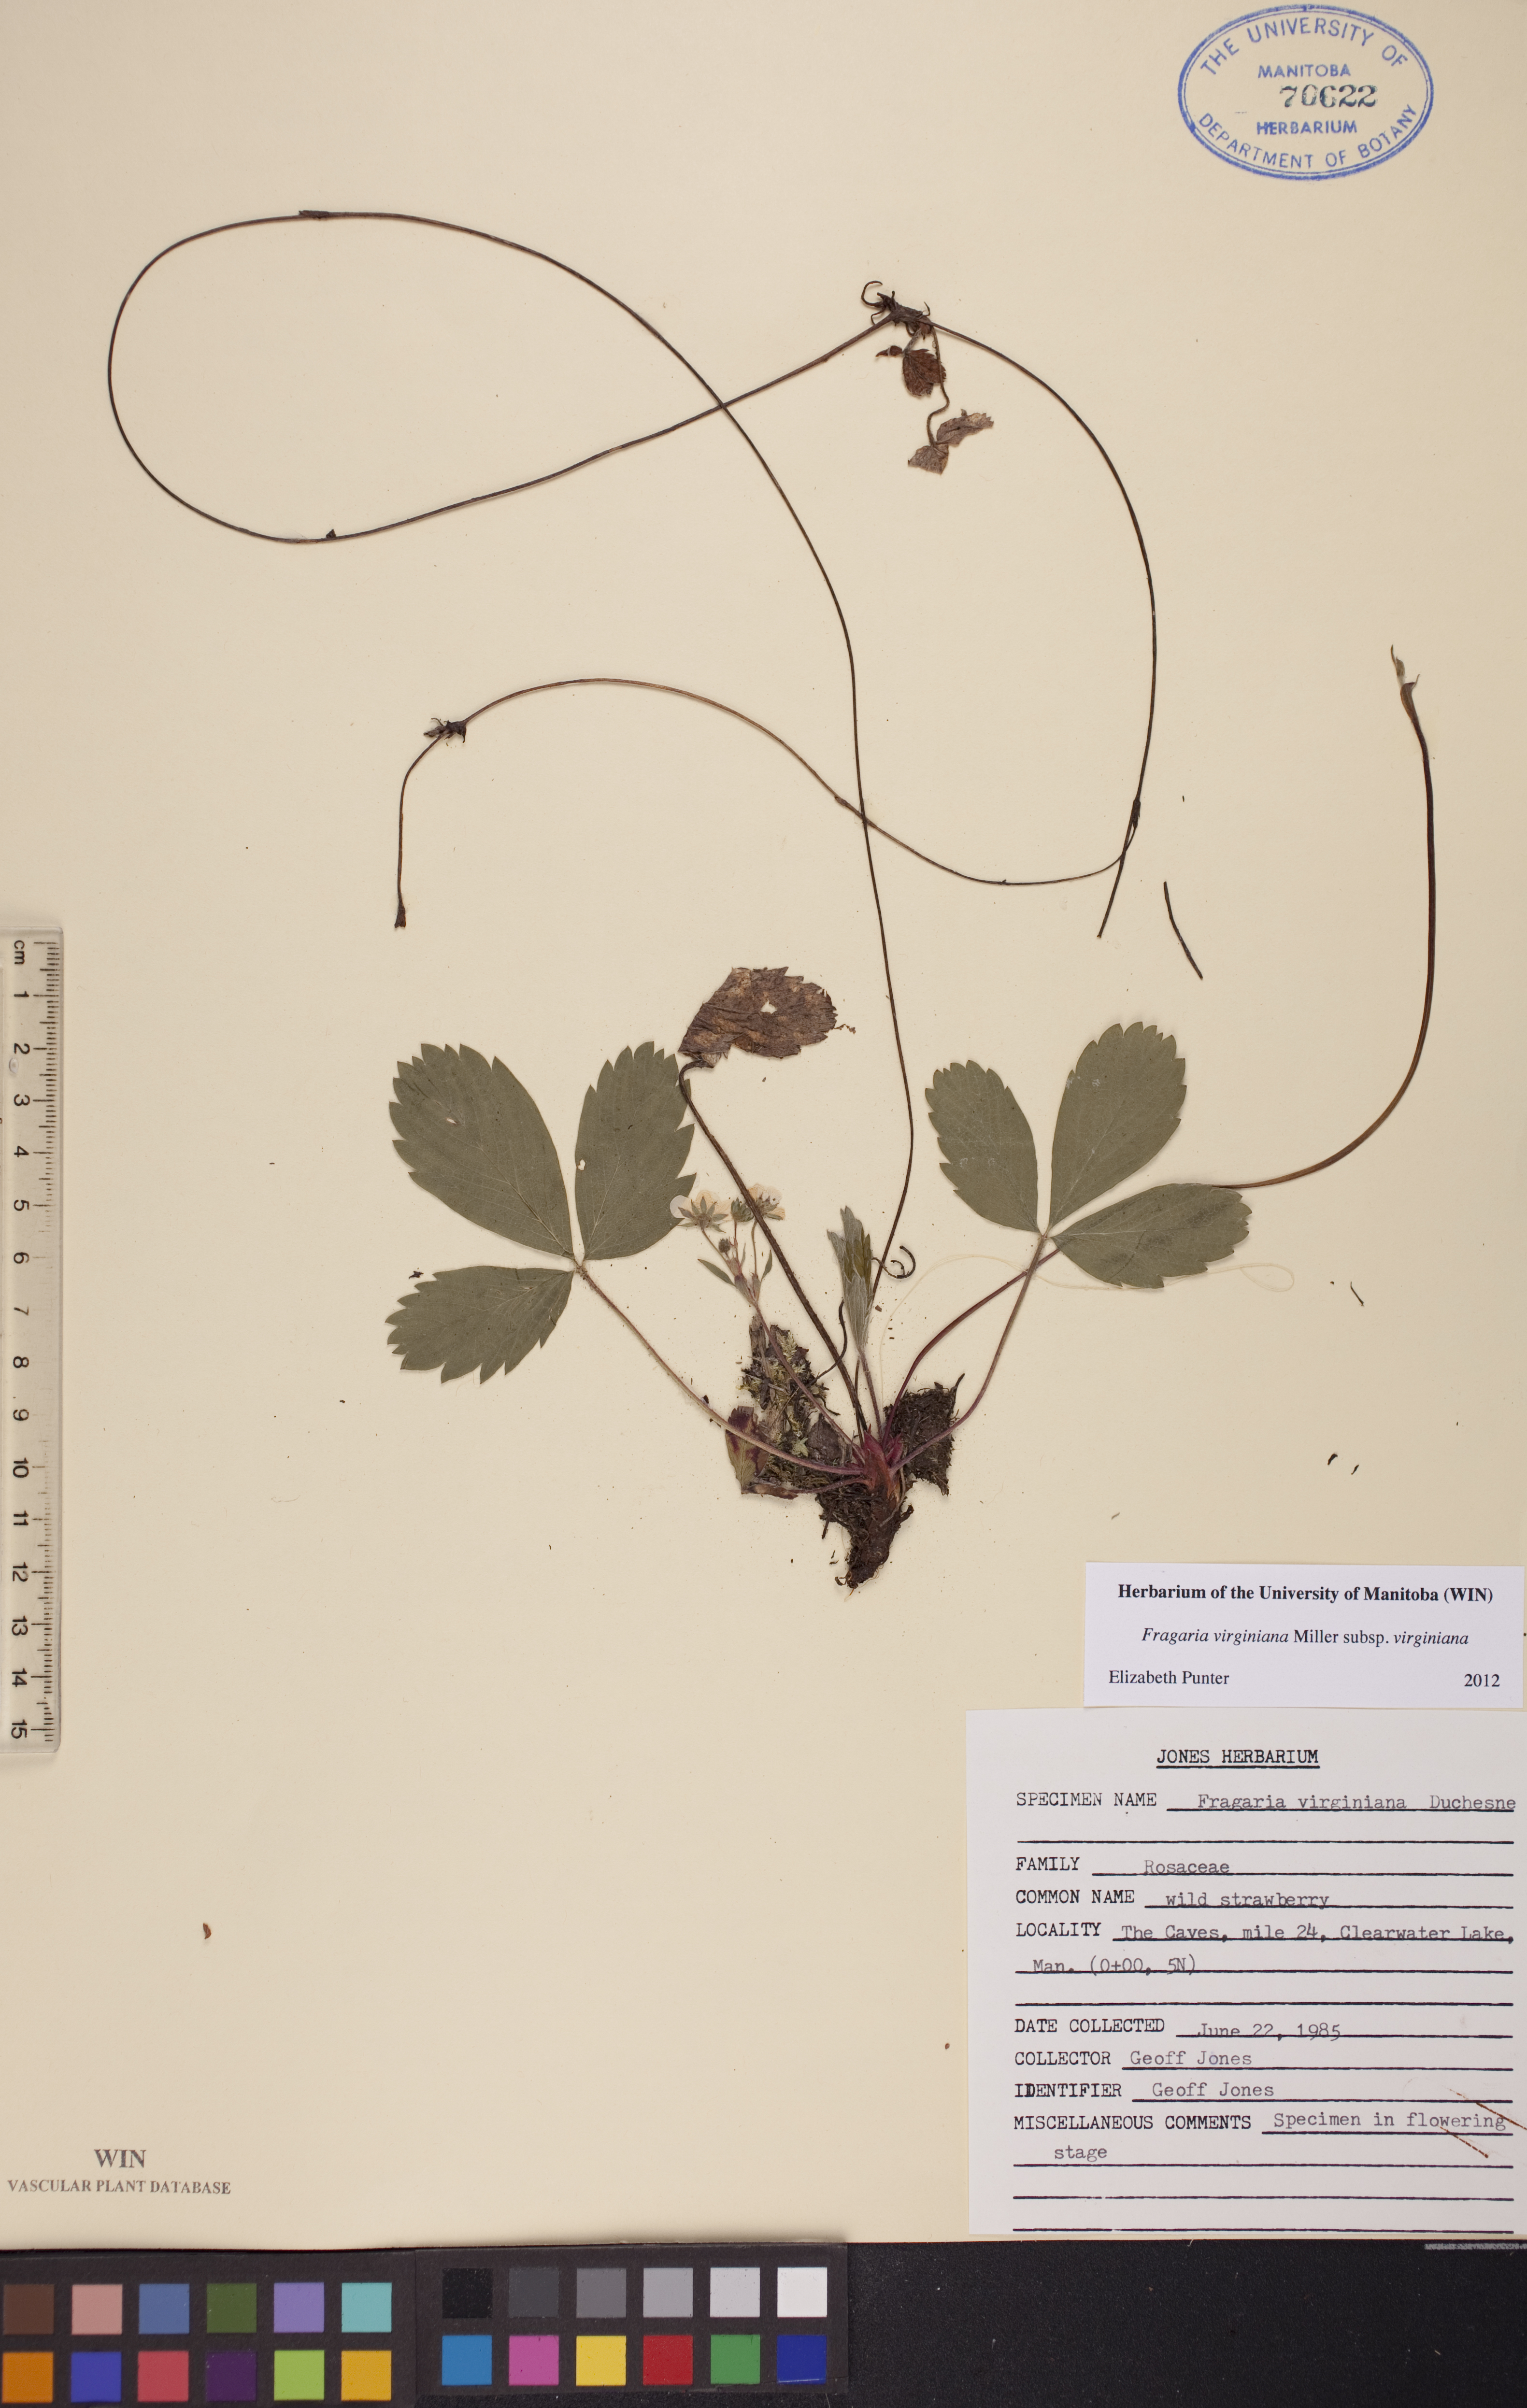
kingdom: Plantae
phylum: Tracheophyta
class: Magnoliopsida
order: Rosales
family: Rosaceae
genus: Fragaria
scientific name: Fragaria virginiana
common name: Thickleaved wild strawberry
